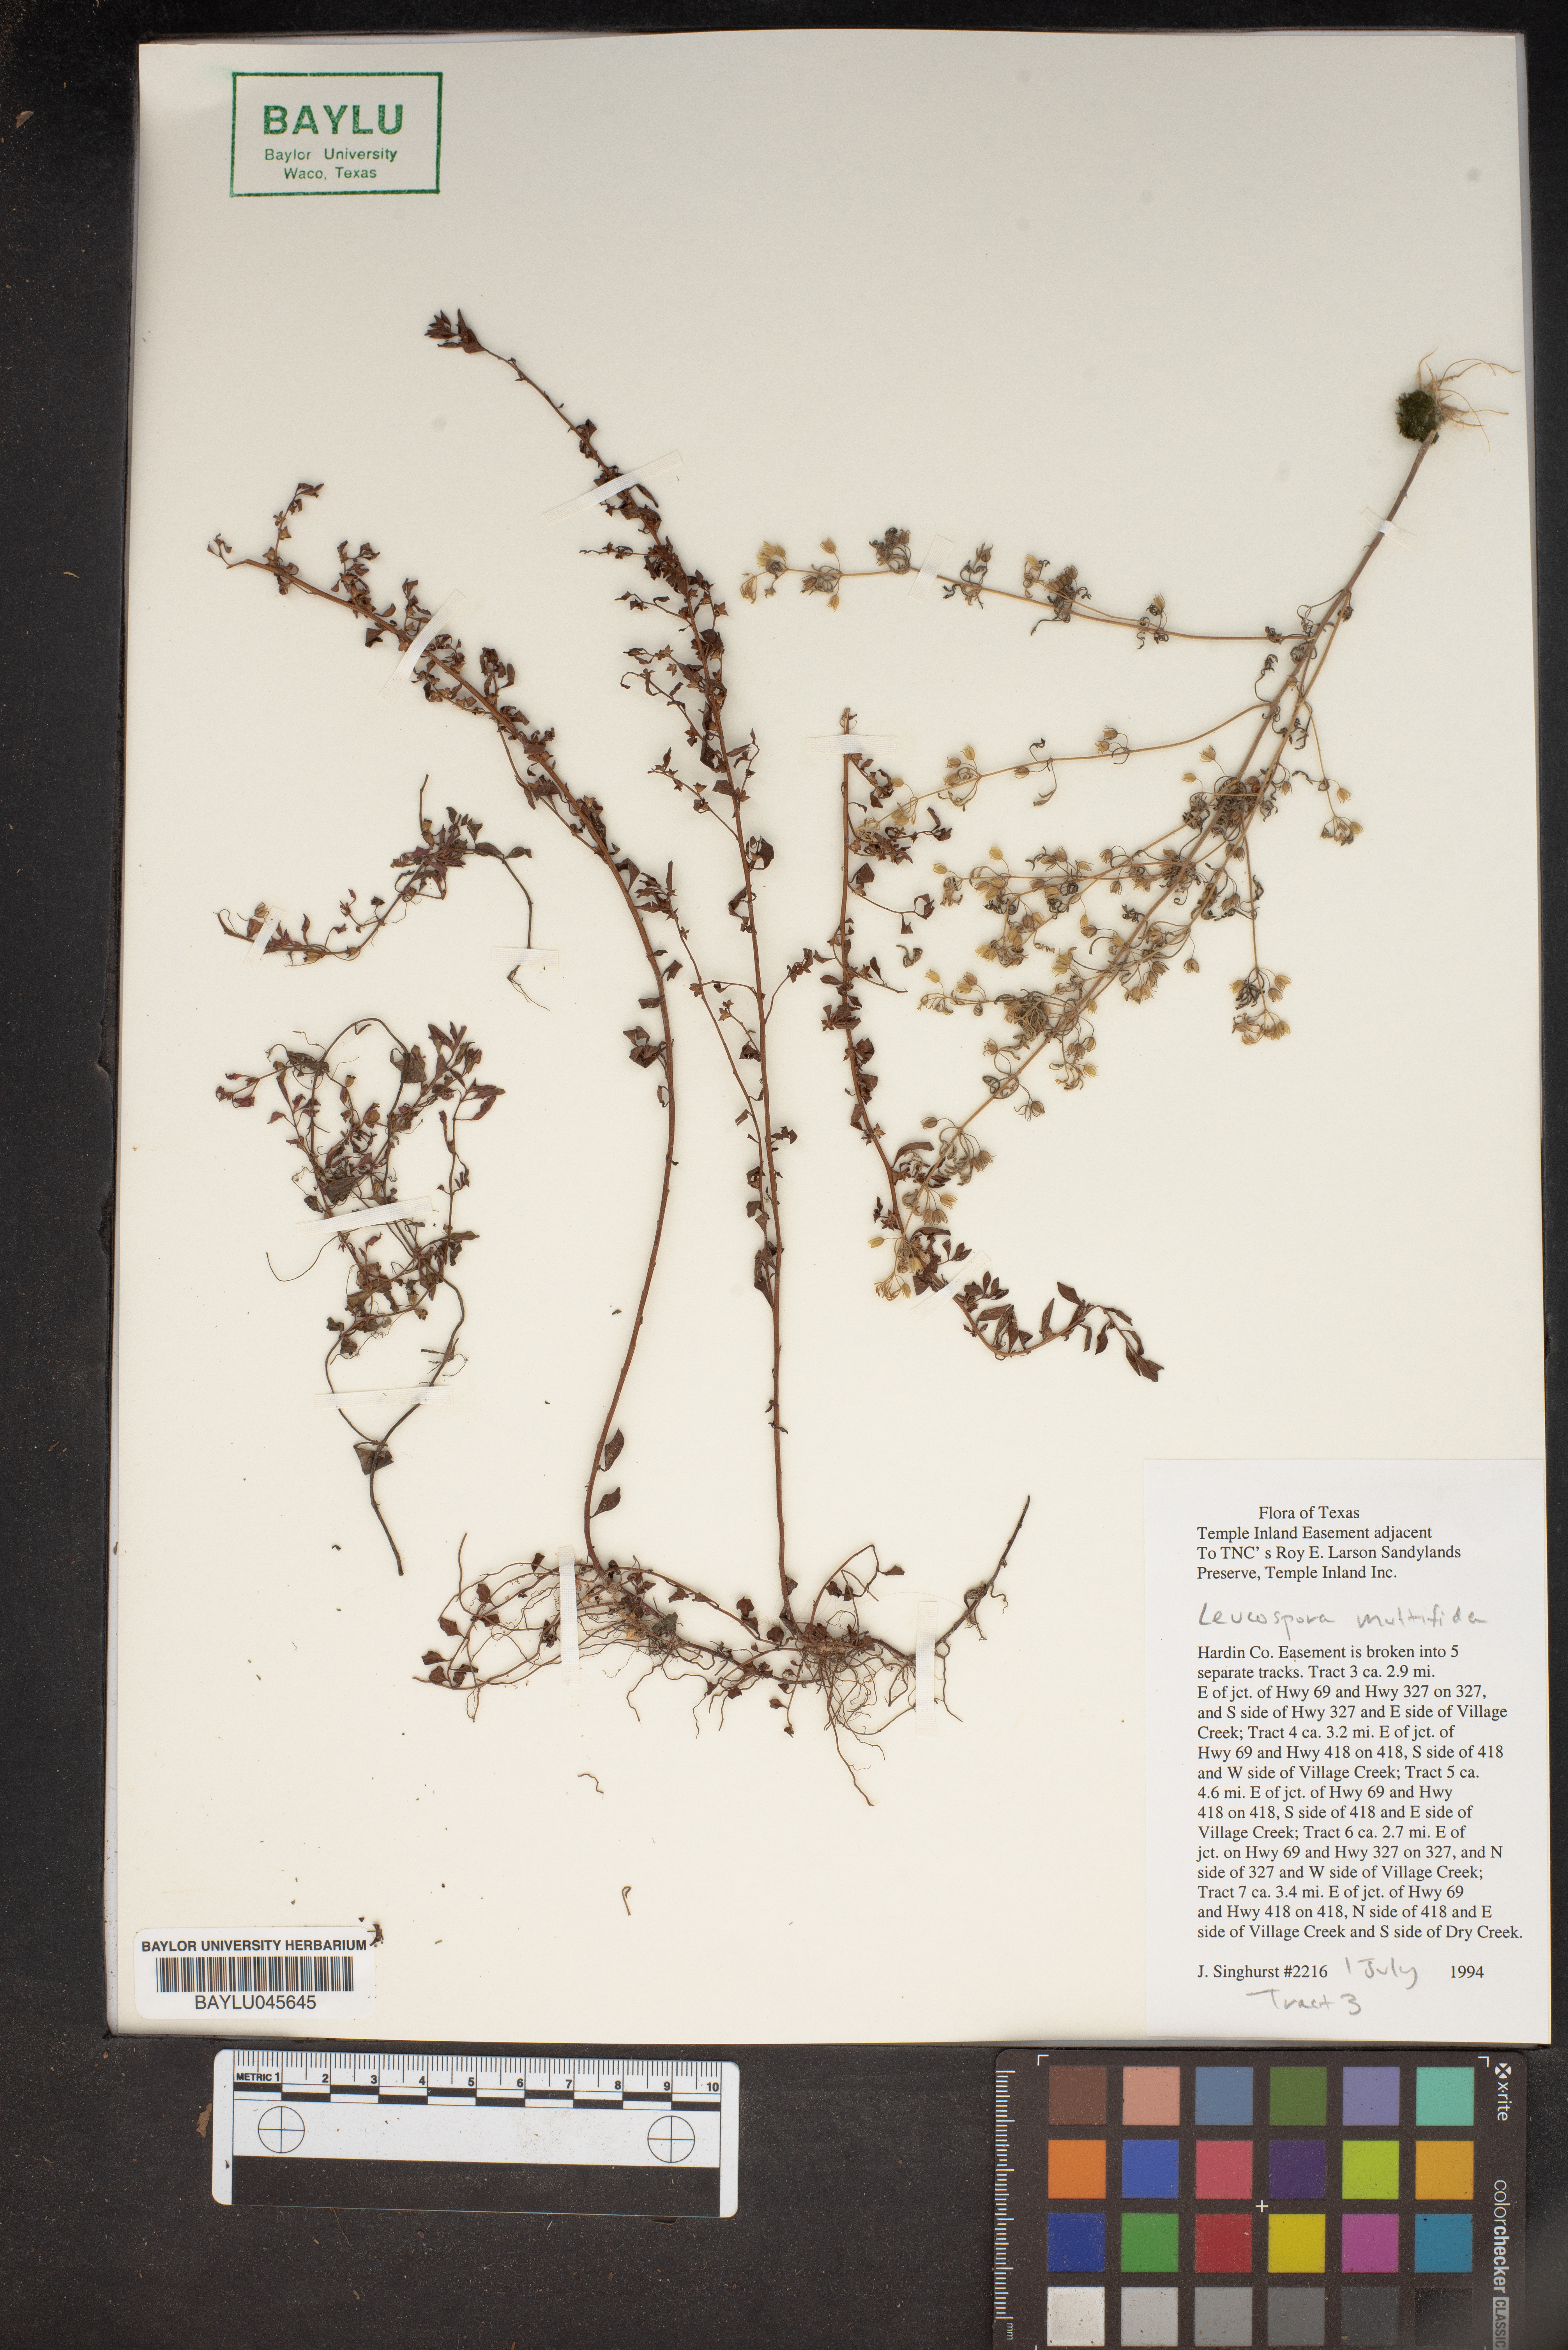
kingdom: Plantae
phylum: Tracheophyta
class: Magnoliopsida
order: Lamiales
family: Plantaginaceae
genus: Leucospora
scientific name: Leucospora multifida
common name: Narrow-leaf paleseed
